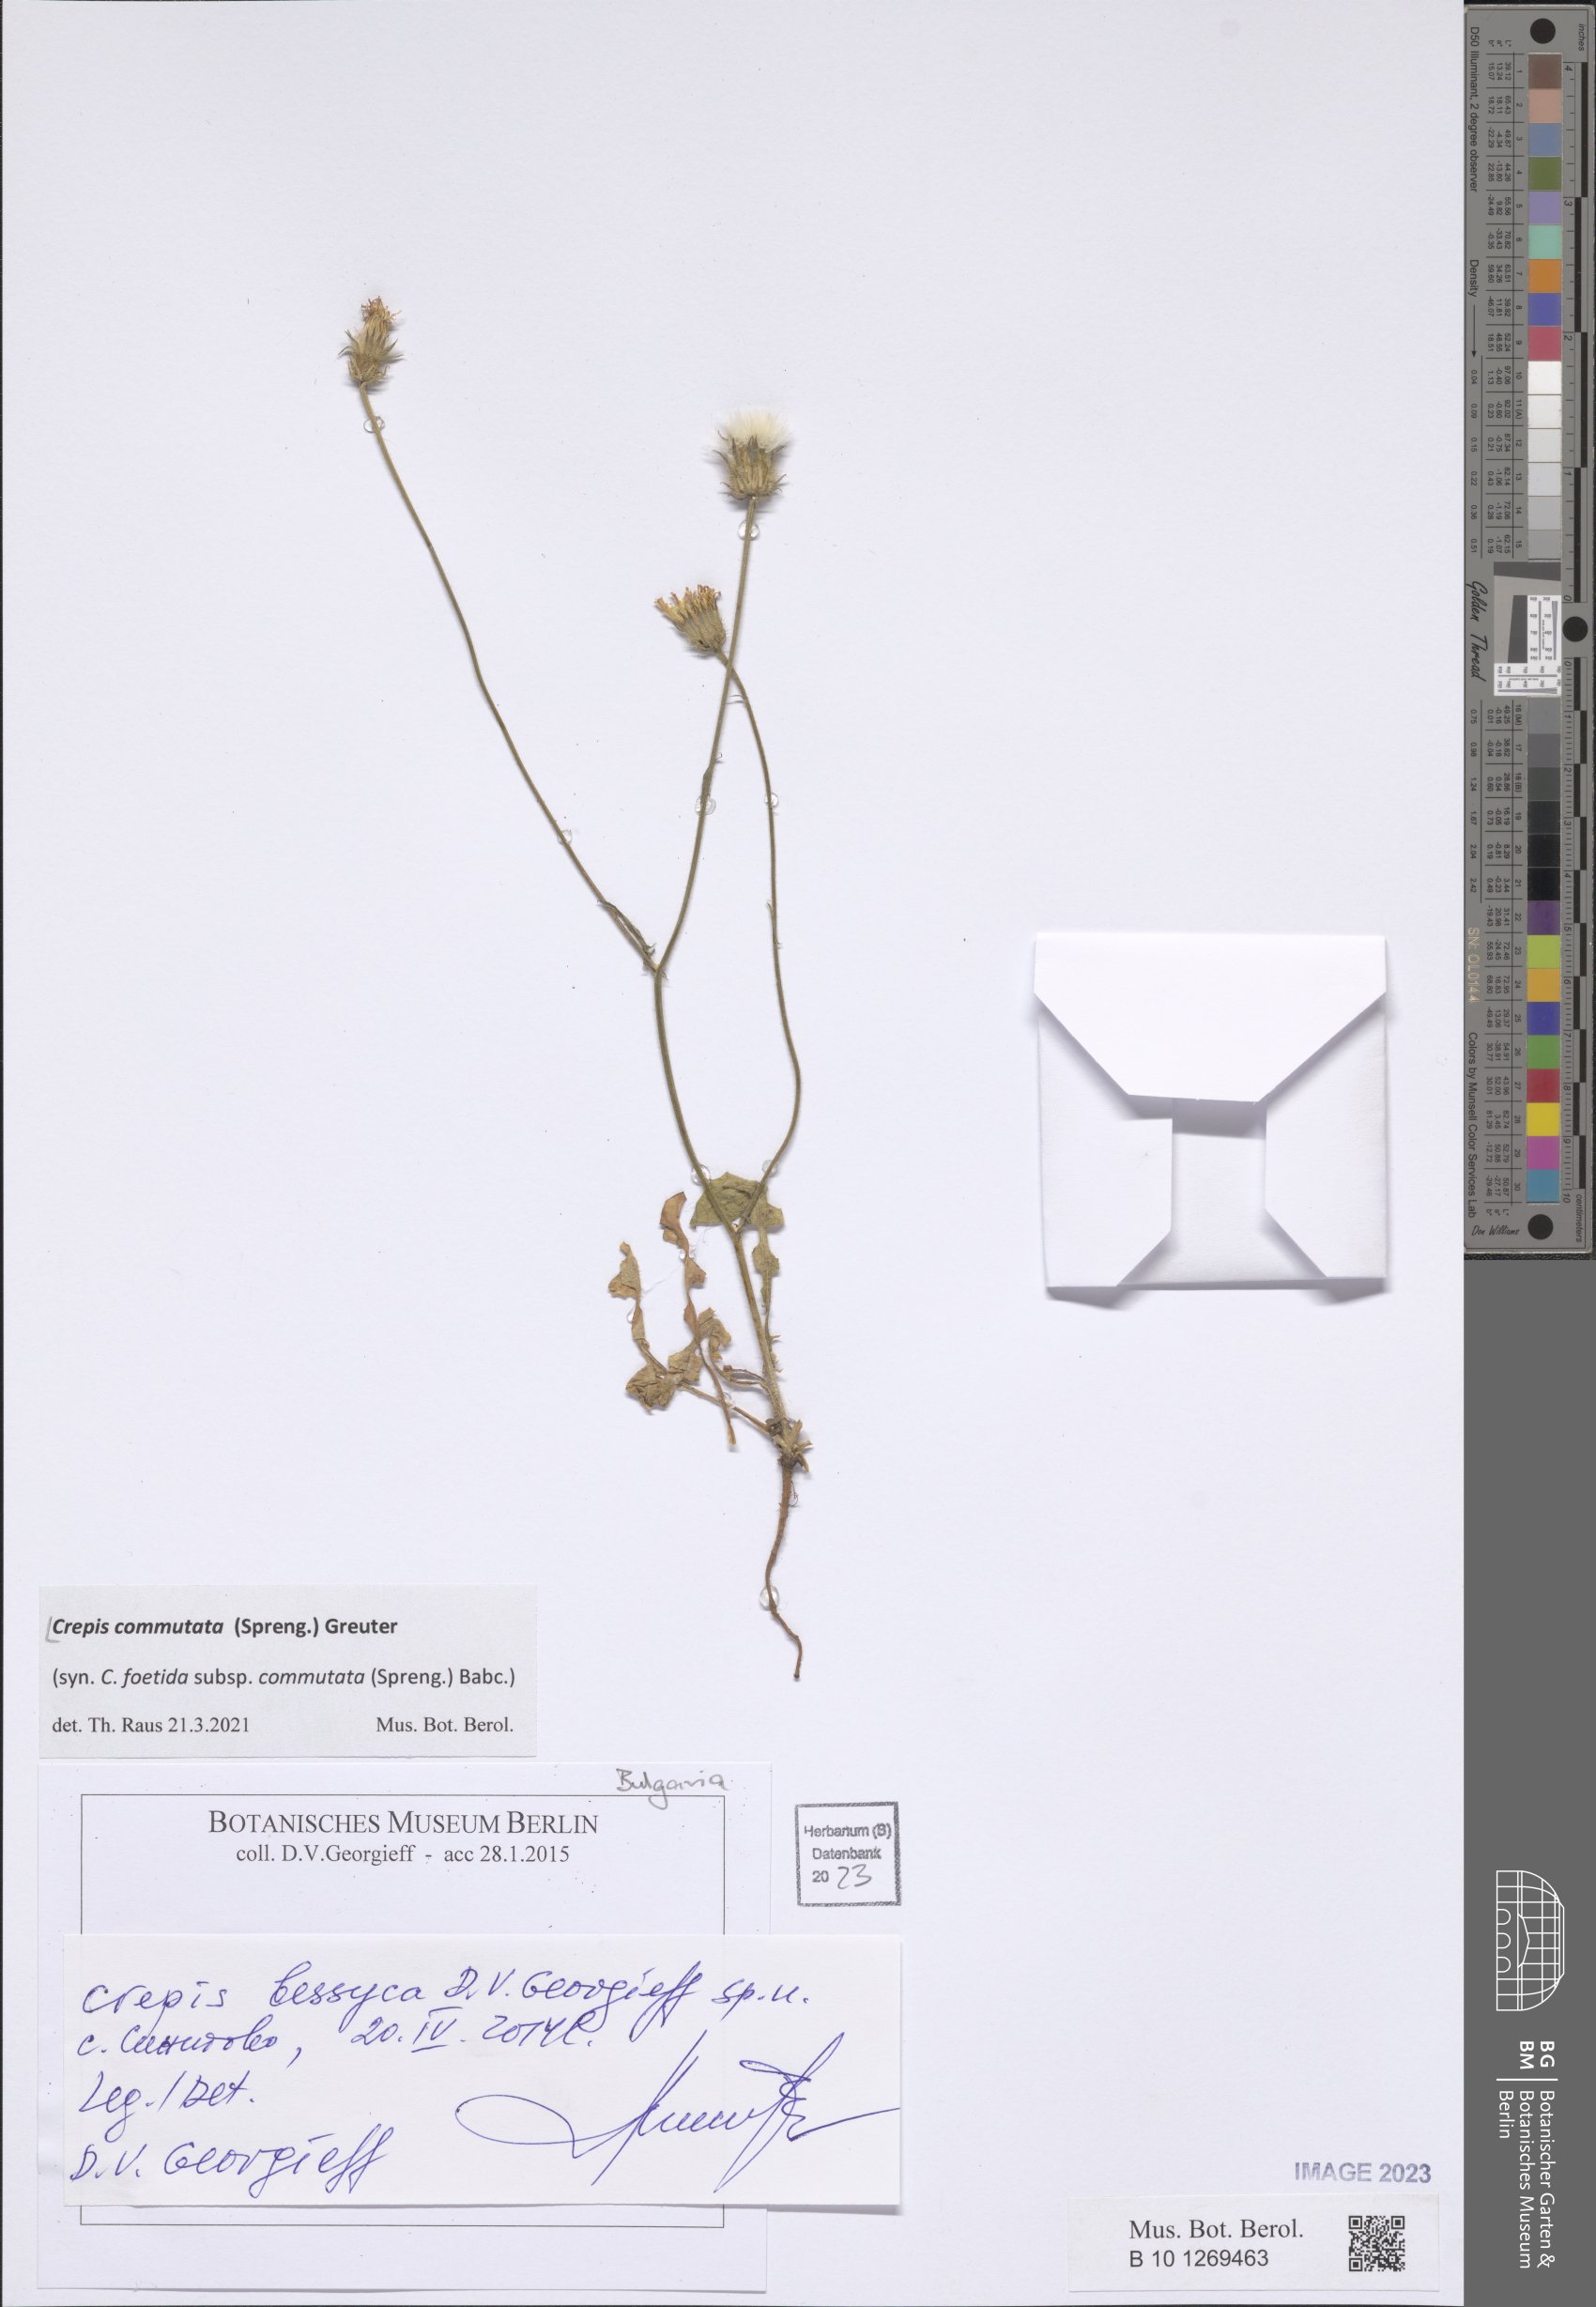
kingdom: Plantae
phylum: Tracheophyta
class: Magnoliopsida
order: Asterales
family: Asteraceae
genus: Crepis
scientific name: Crepis commutata
